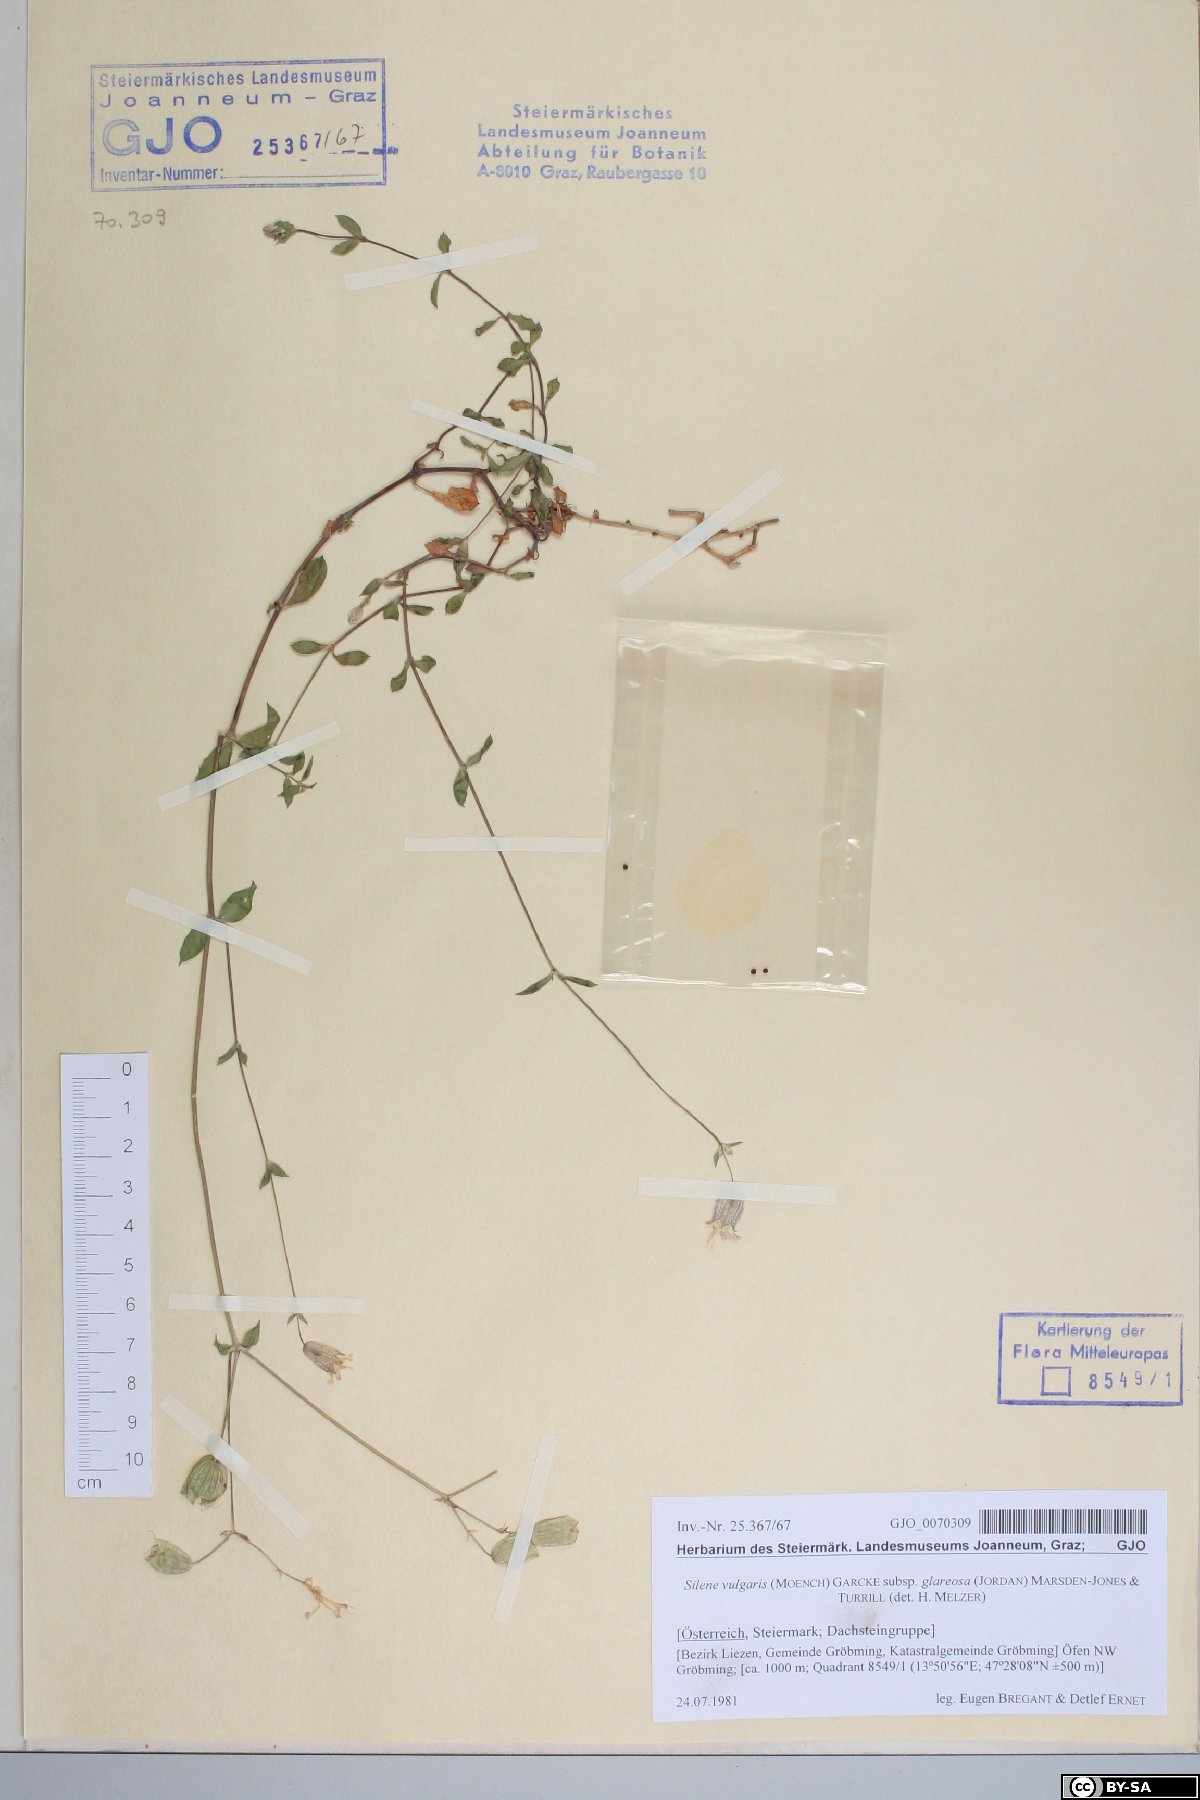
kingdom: Plantae
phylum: Tracheophyta
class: Magnoliopsida
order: Caryophyllales
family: Caryophyllaceae
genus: Silene
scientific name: Silene glareosa
